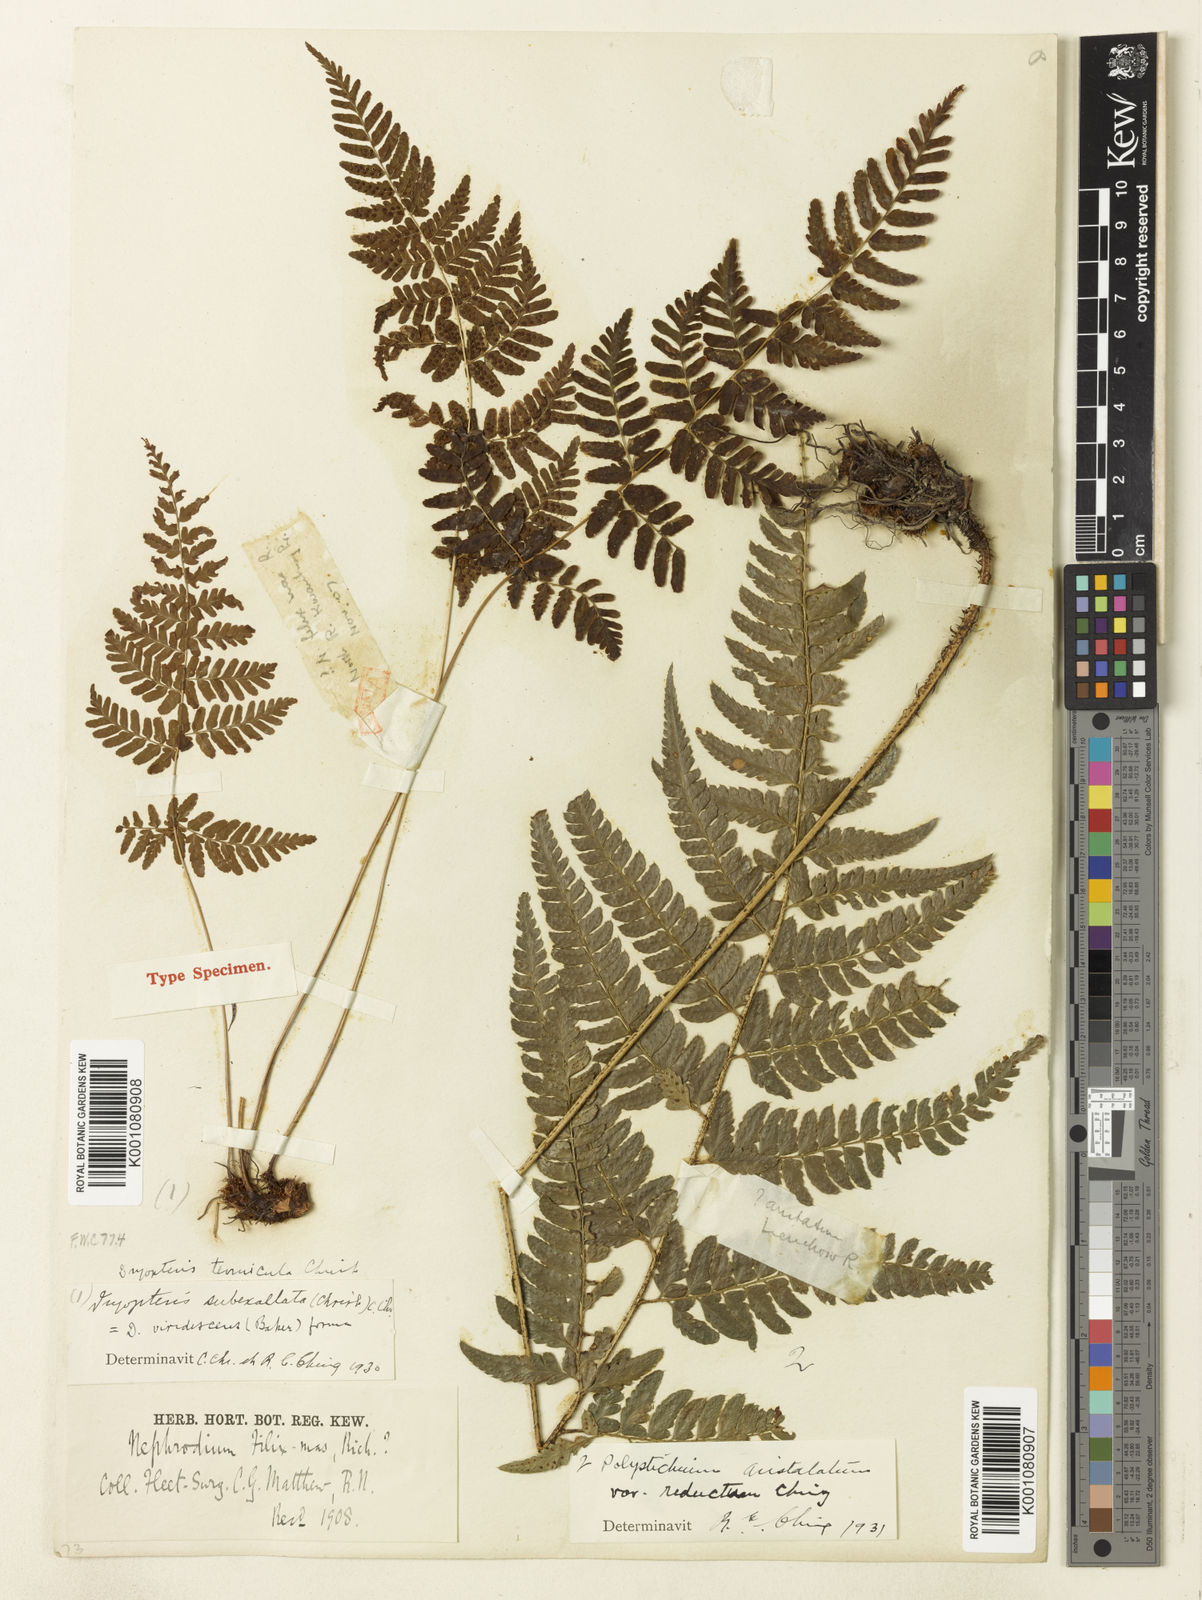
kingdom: Plantae
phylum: Tracheophyta
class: Polypodiopsida
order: Polypodiales
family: Dryopteridaceae
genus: Dryopteris
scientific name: Dryopteris sparsa
